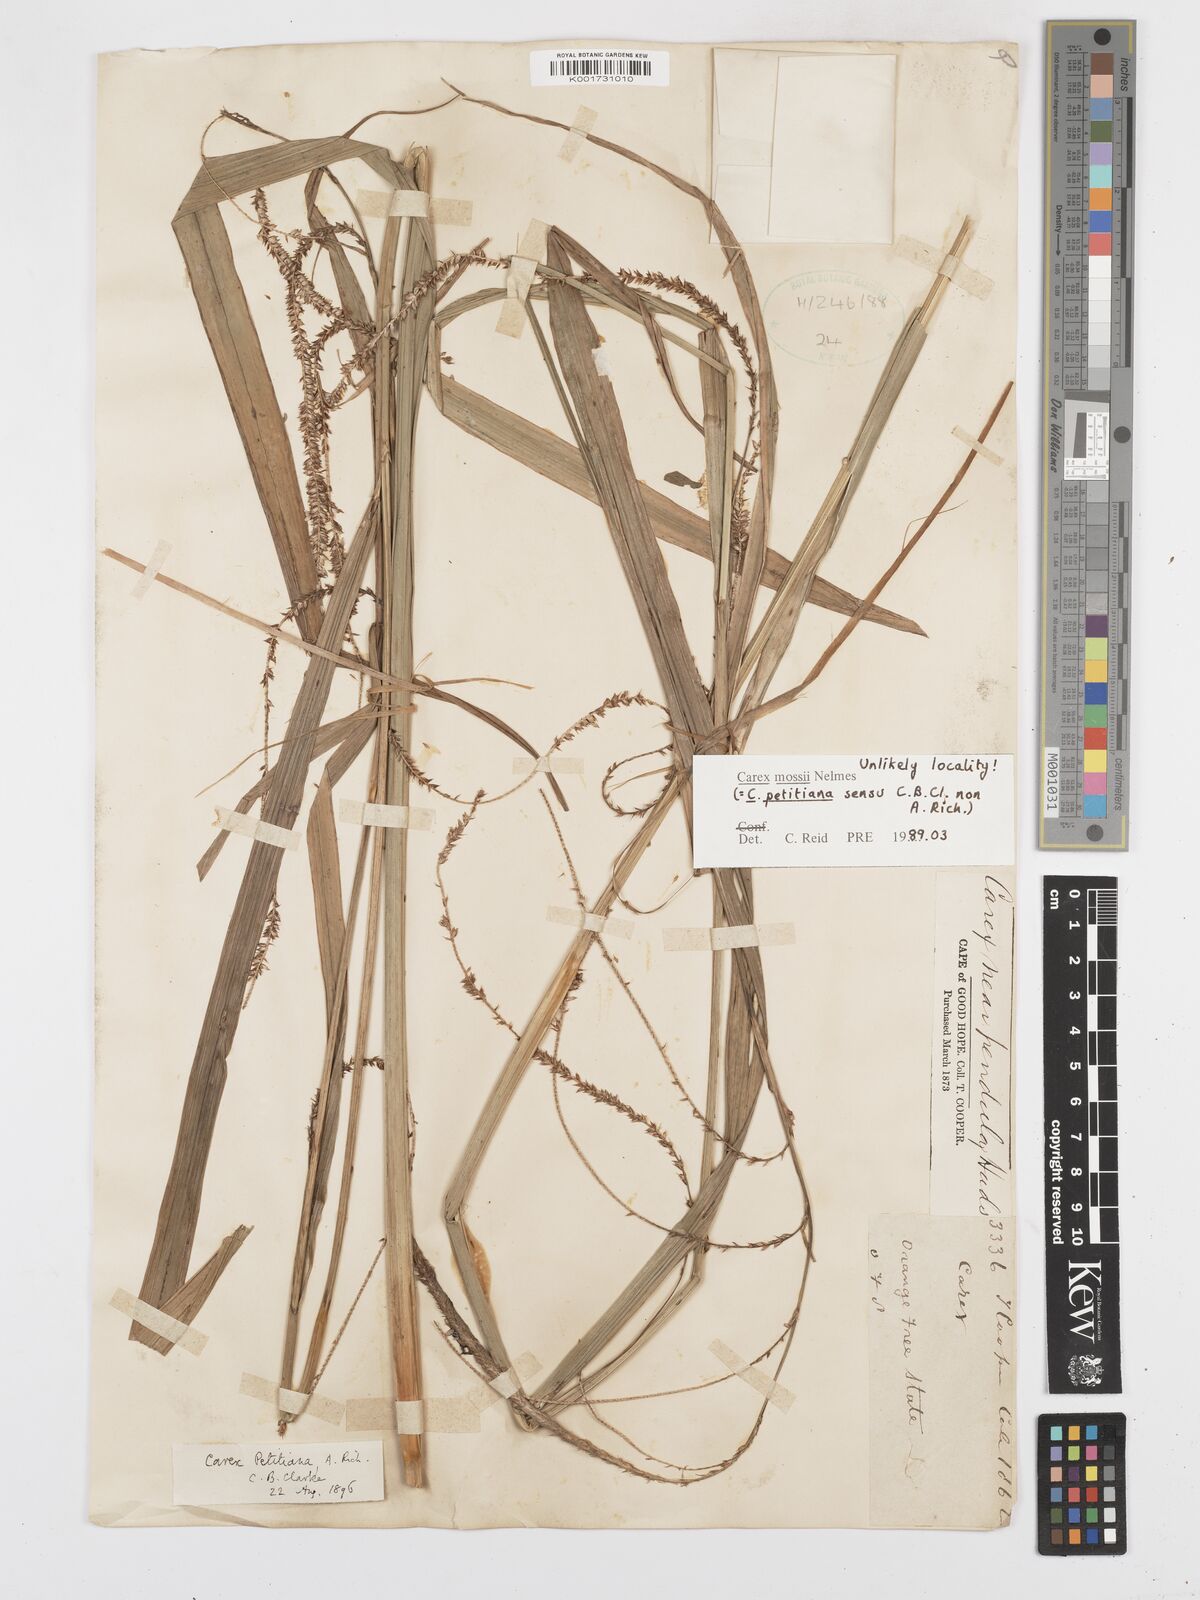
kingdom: Plantae
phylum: Tracheophyta
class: Liliopsida
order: Poales
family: Cyperaceae
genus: Carex
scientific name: Carex petitiana
